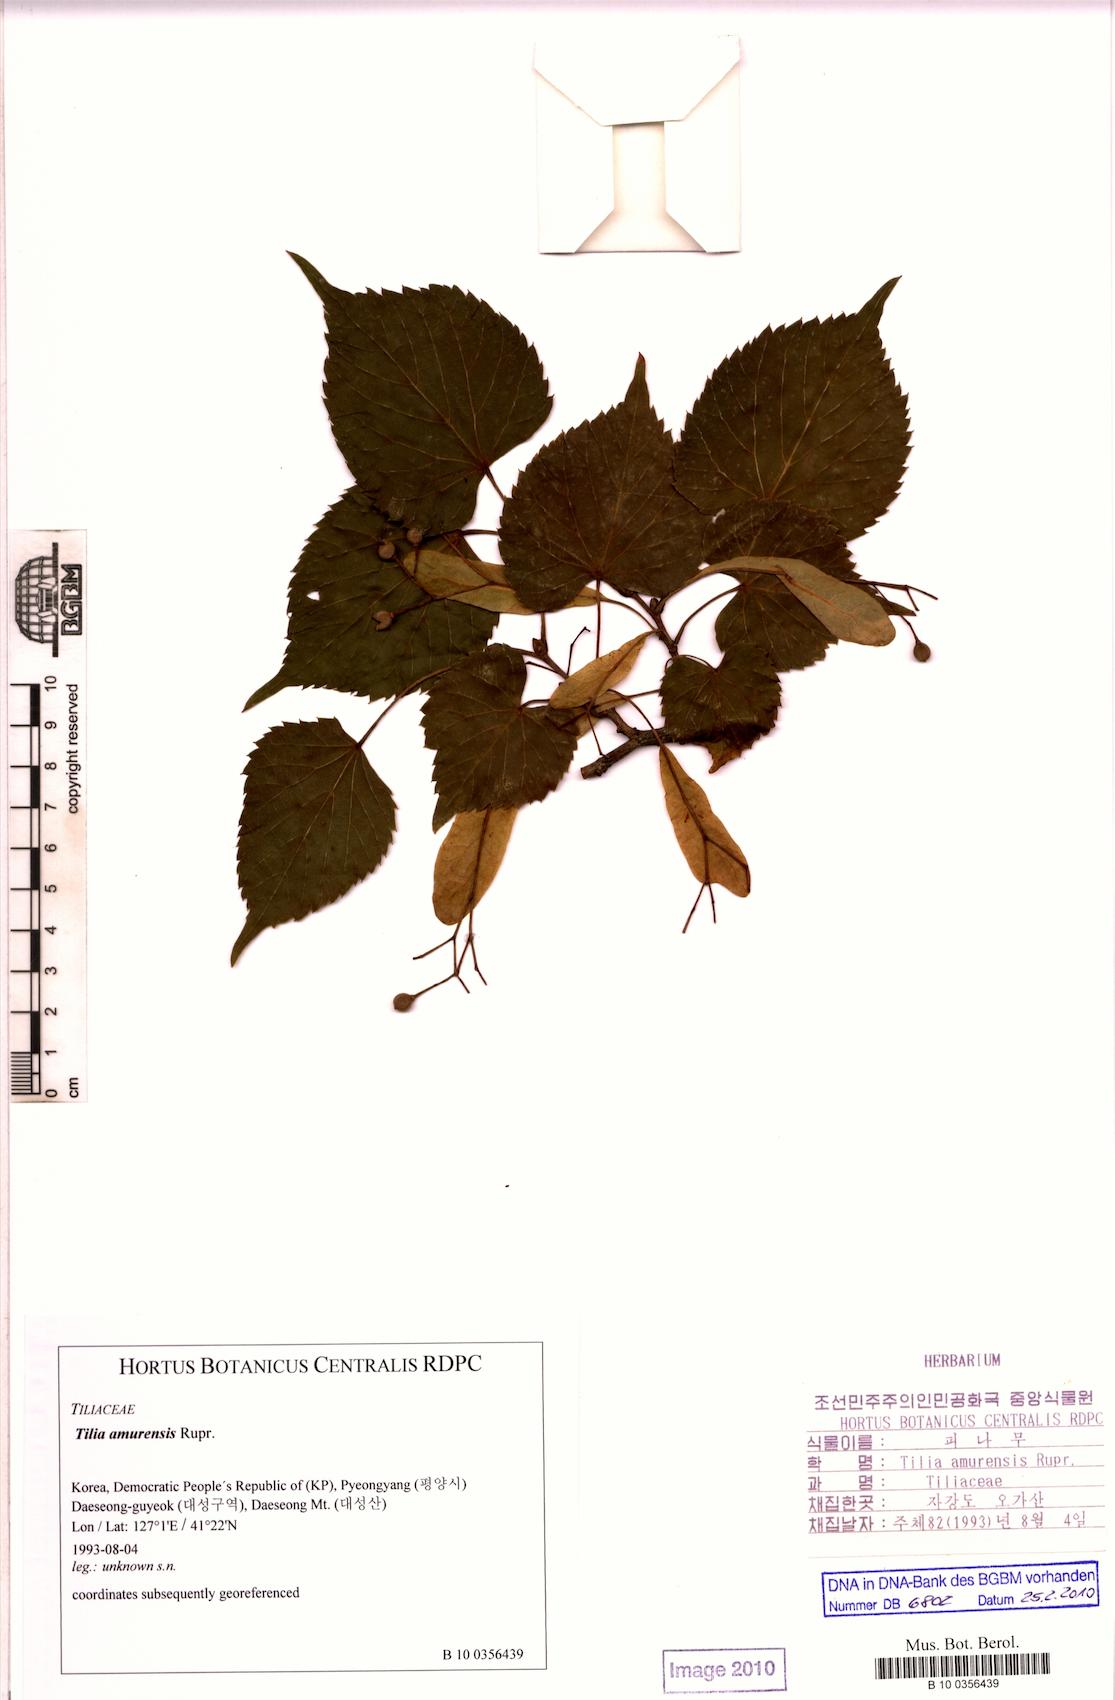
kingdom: Plantae
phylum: Tracheophyta
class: Magnoliopsida
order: Malvales
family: Malvaceae
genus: Tilia
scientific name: Tilia amurensis
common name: Amur lime
